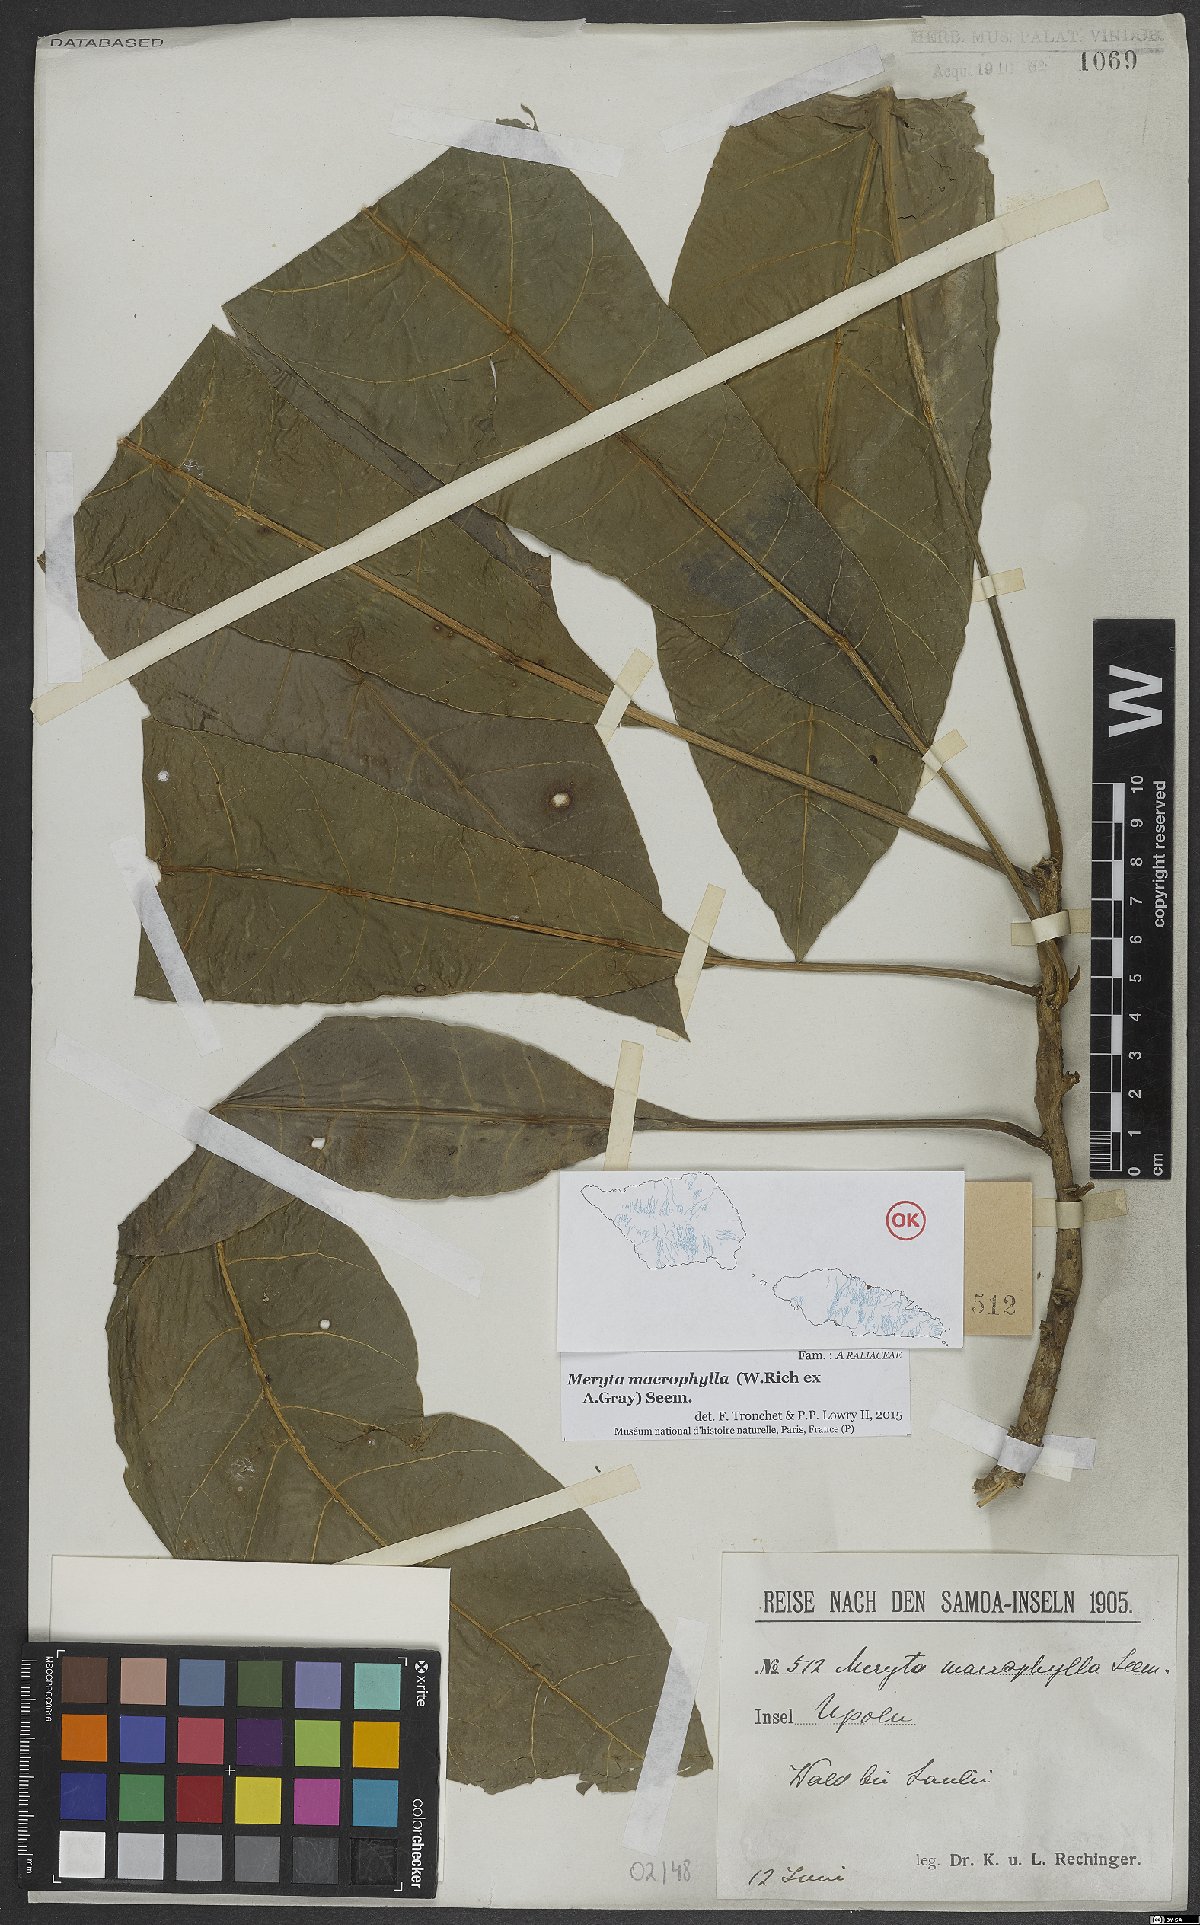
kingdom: Plantae
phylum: Tracheophyta
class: Magnoliopsida
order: Apiales
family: Araliaceae
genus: Meryta
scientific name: Meryta macrophylla
